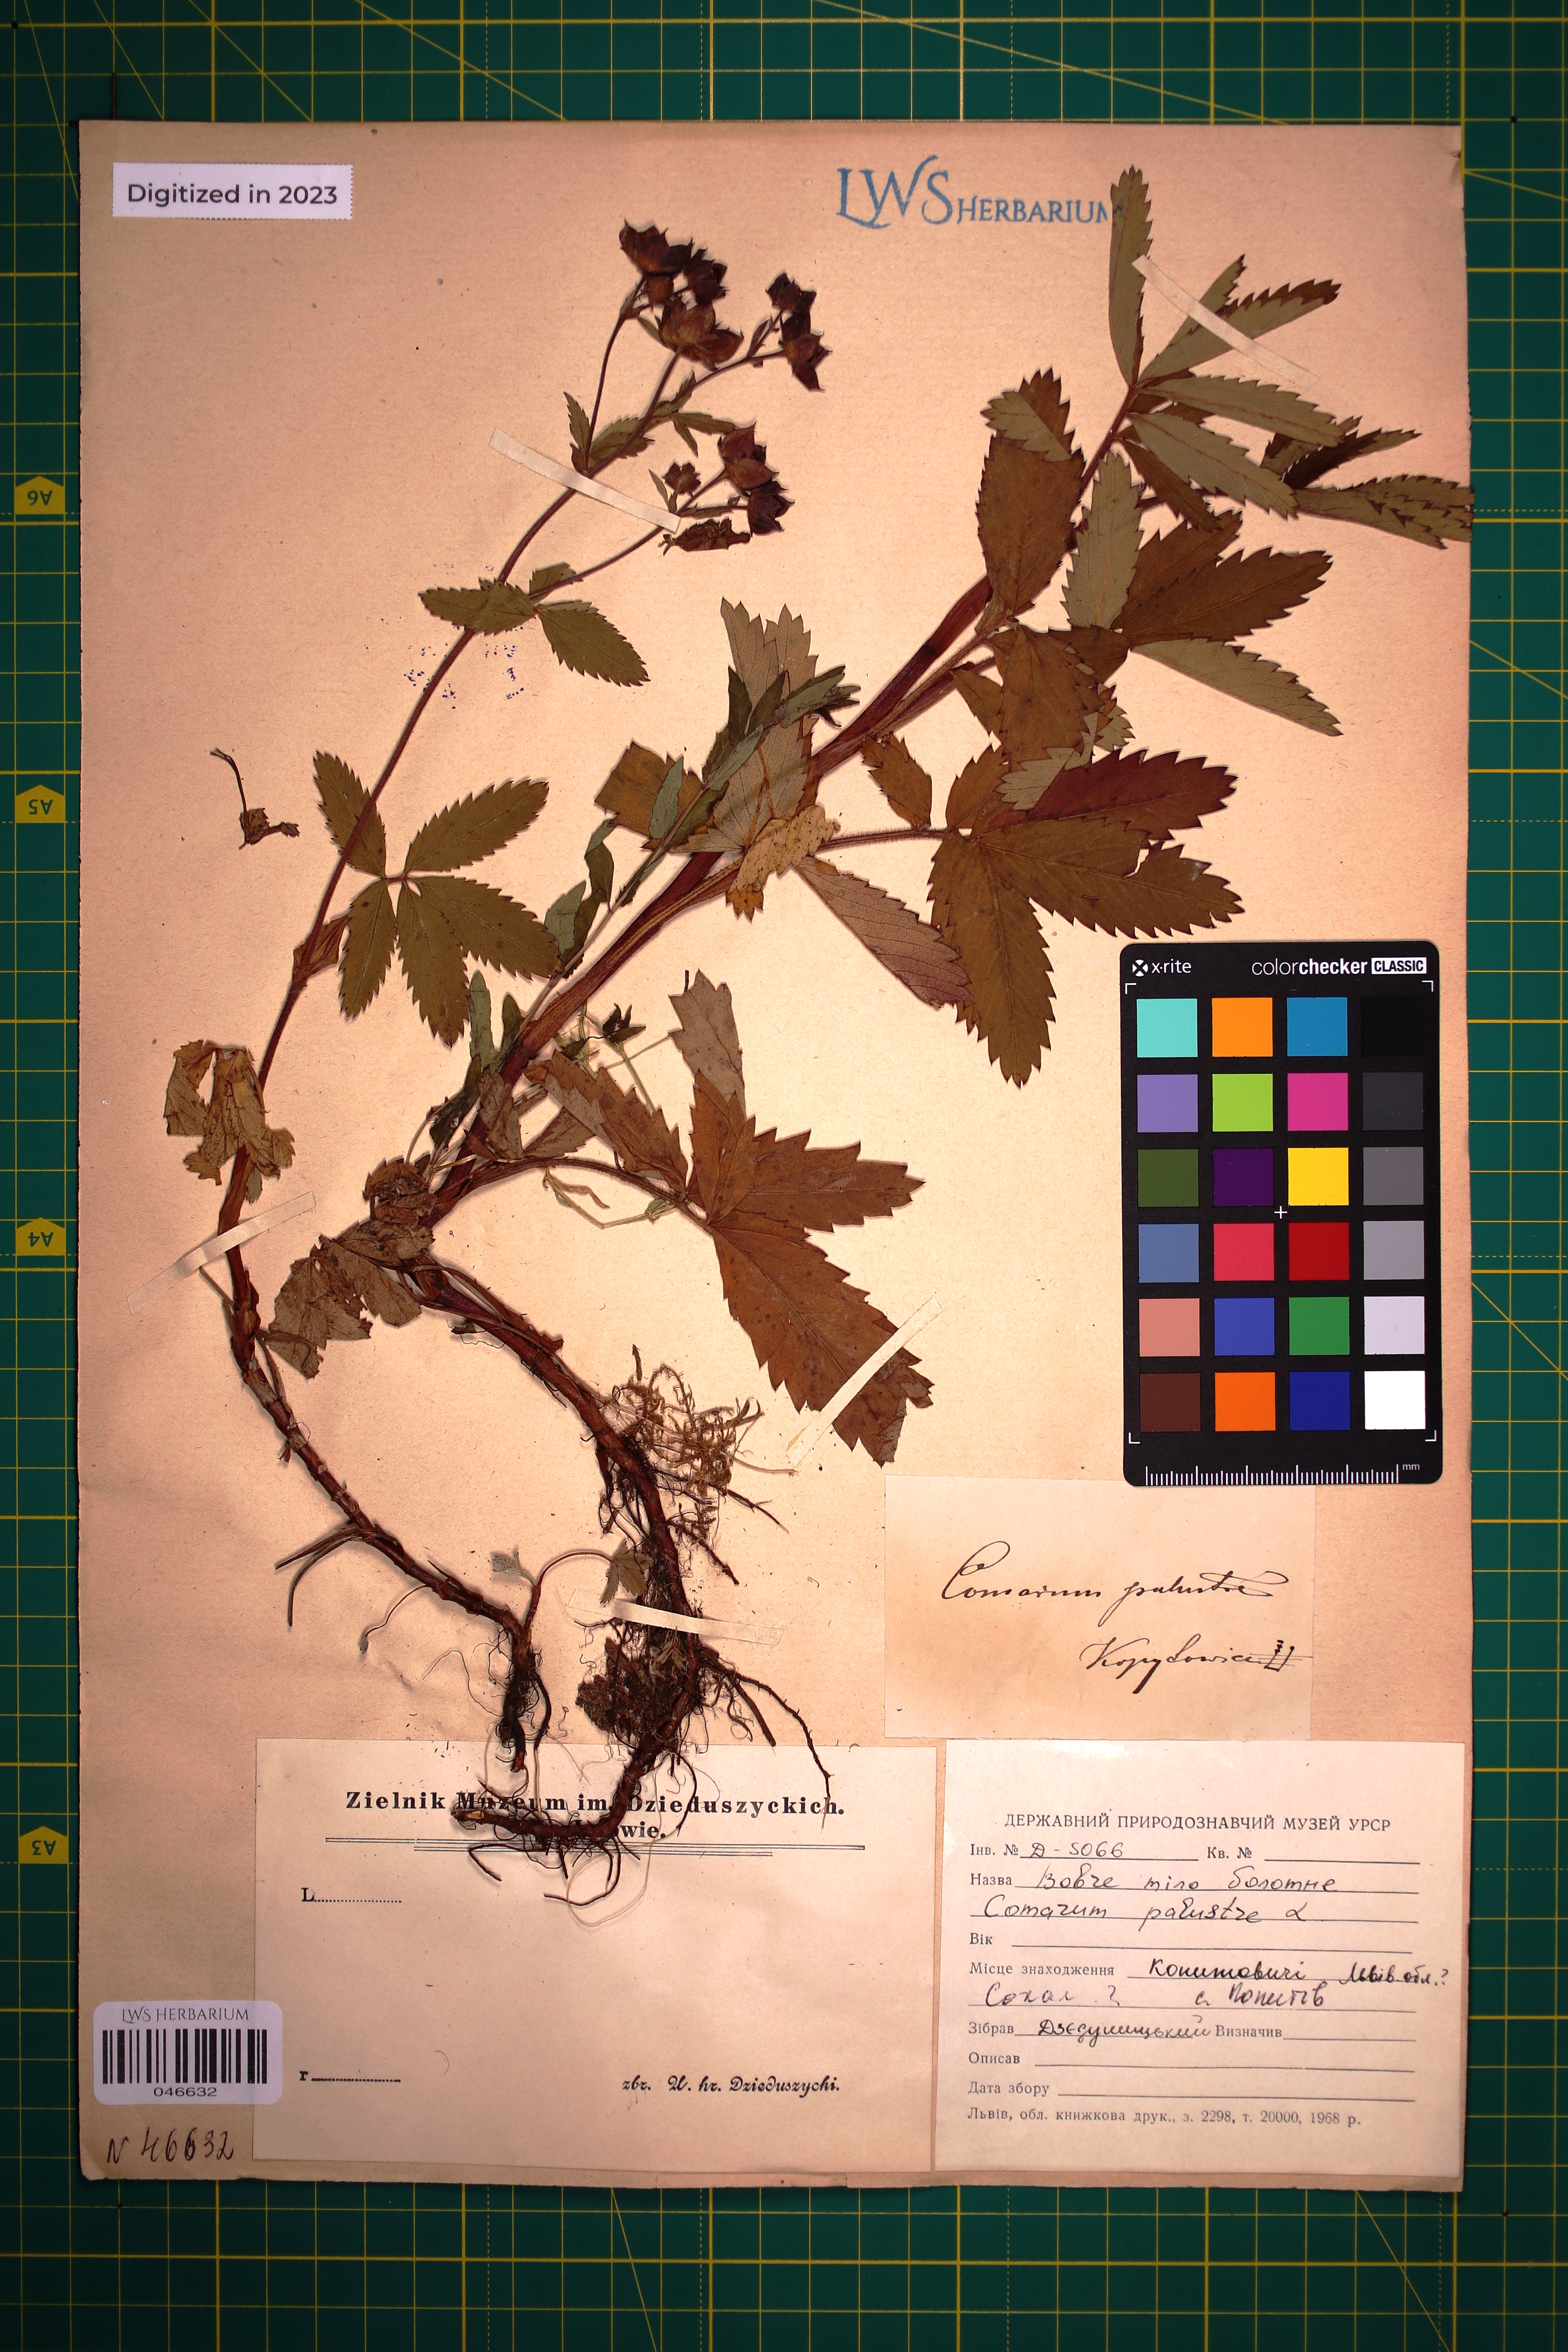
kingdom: Plantae
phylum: Tracheophyta
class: Magnoliopsida
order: Rosales
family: Rosaceae
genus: Comarum
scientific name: Comarum palustre
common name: Marsh cinquefoil
